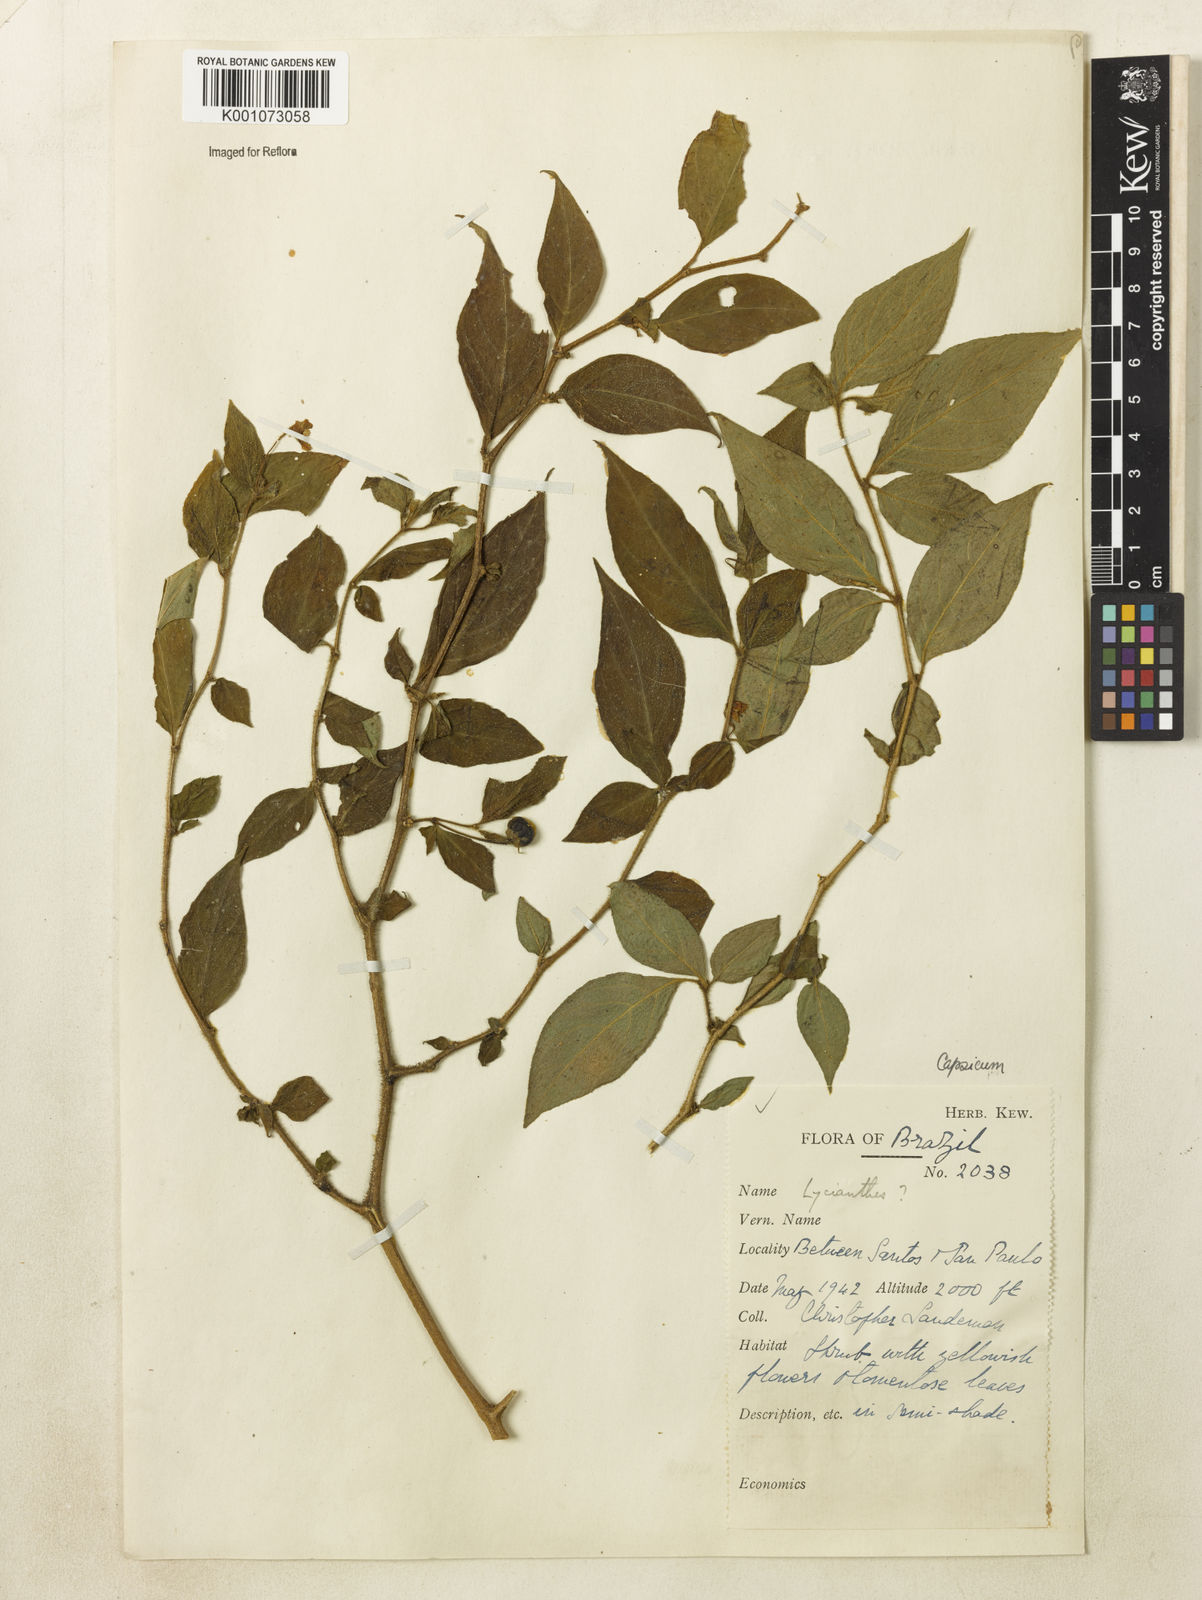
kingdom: Plantae
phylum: Tracheophyta
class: Magnoliopsida
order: Solanales
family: Solanaceae
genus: Capsicum
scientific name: Capsicum
